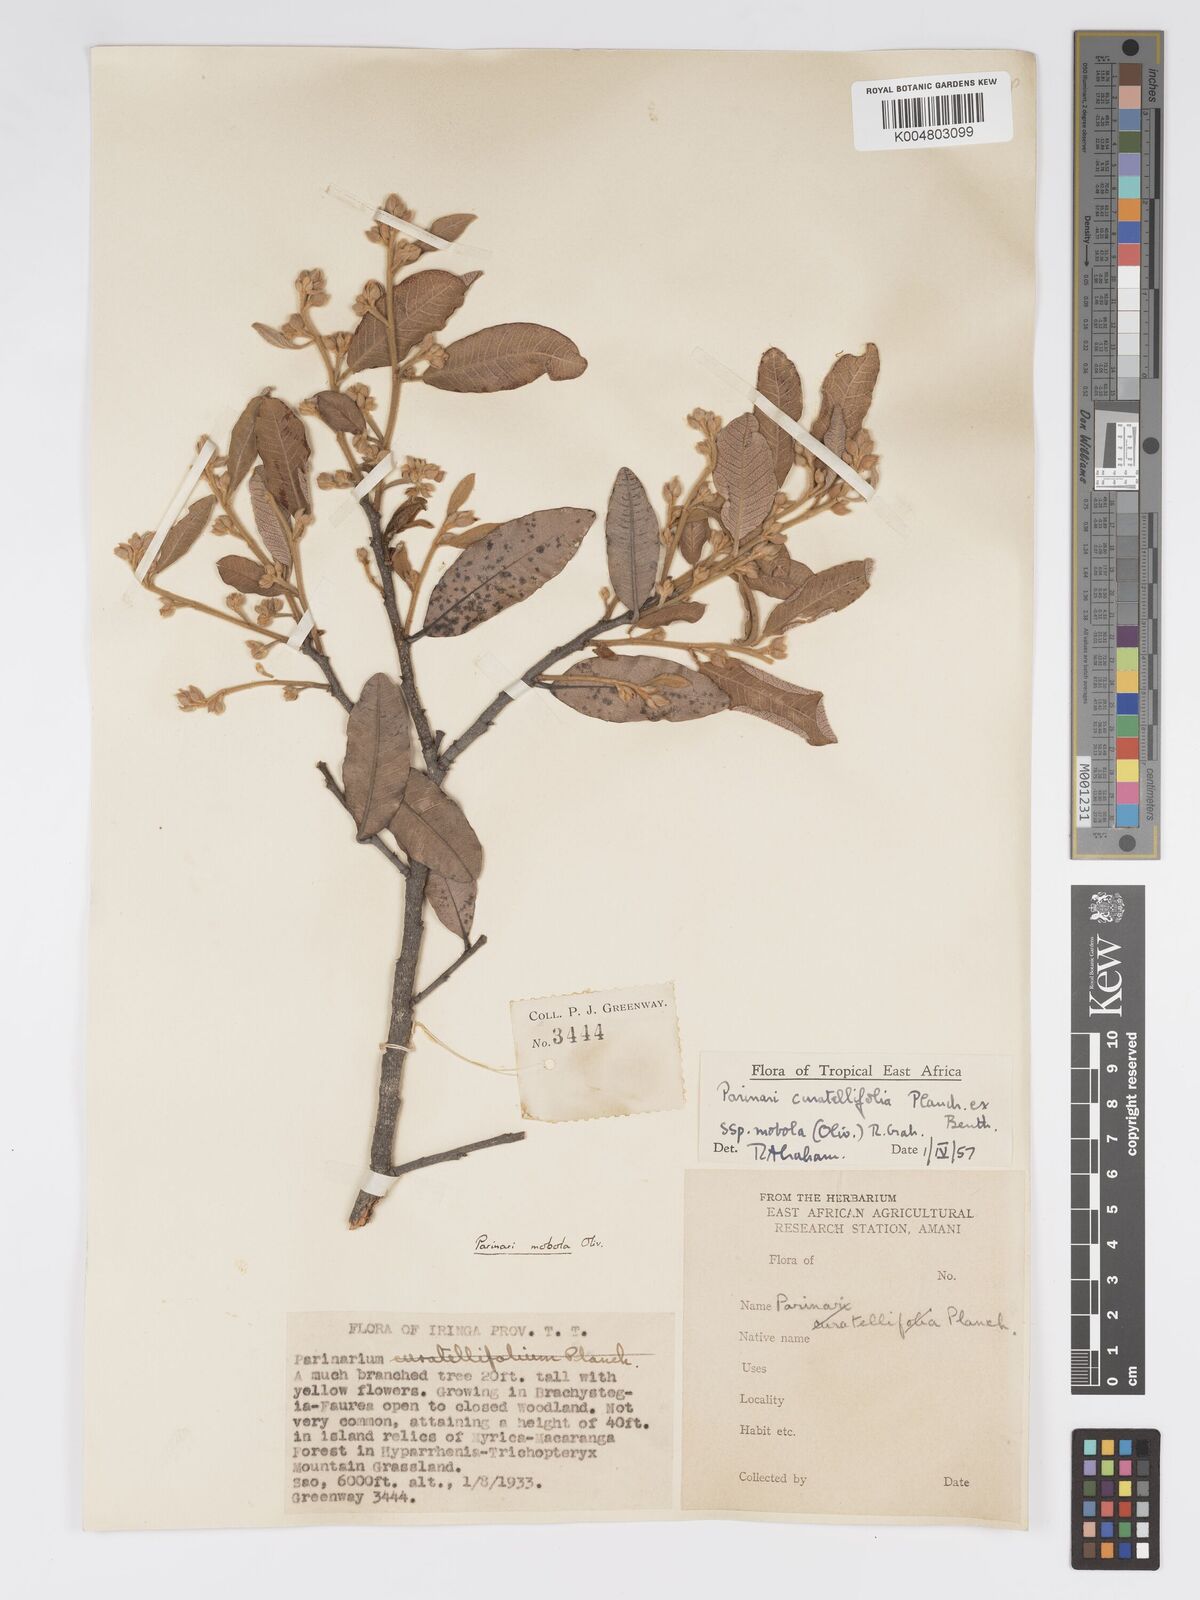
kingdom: Plantae
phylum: Tracheophyta
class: Magnoliopsida
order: Malpighiales
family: Chrysobalanaceae
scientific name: Chrysobalanaceae
